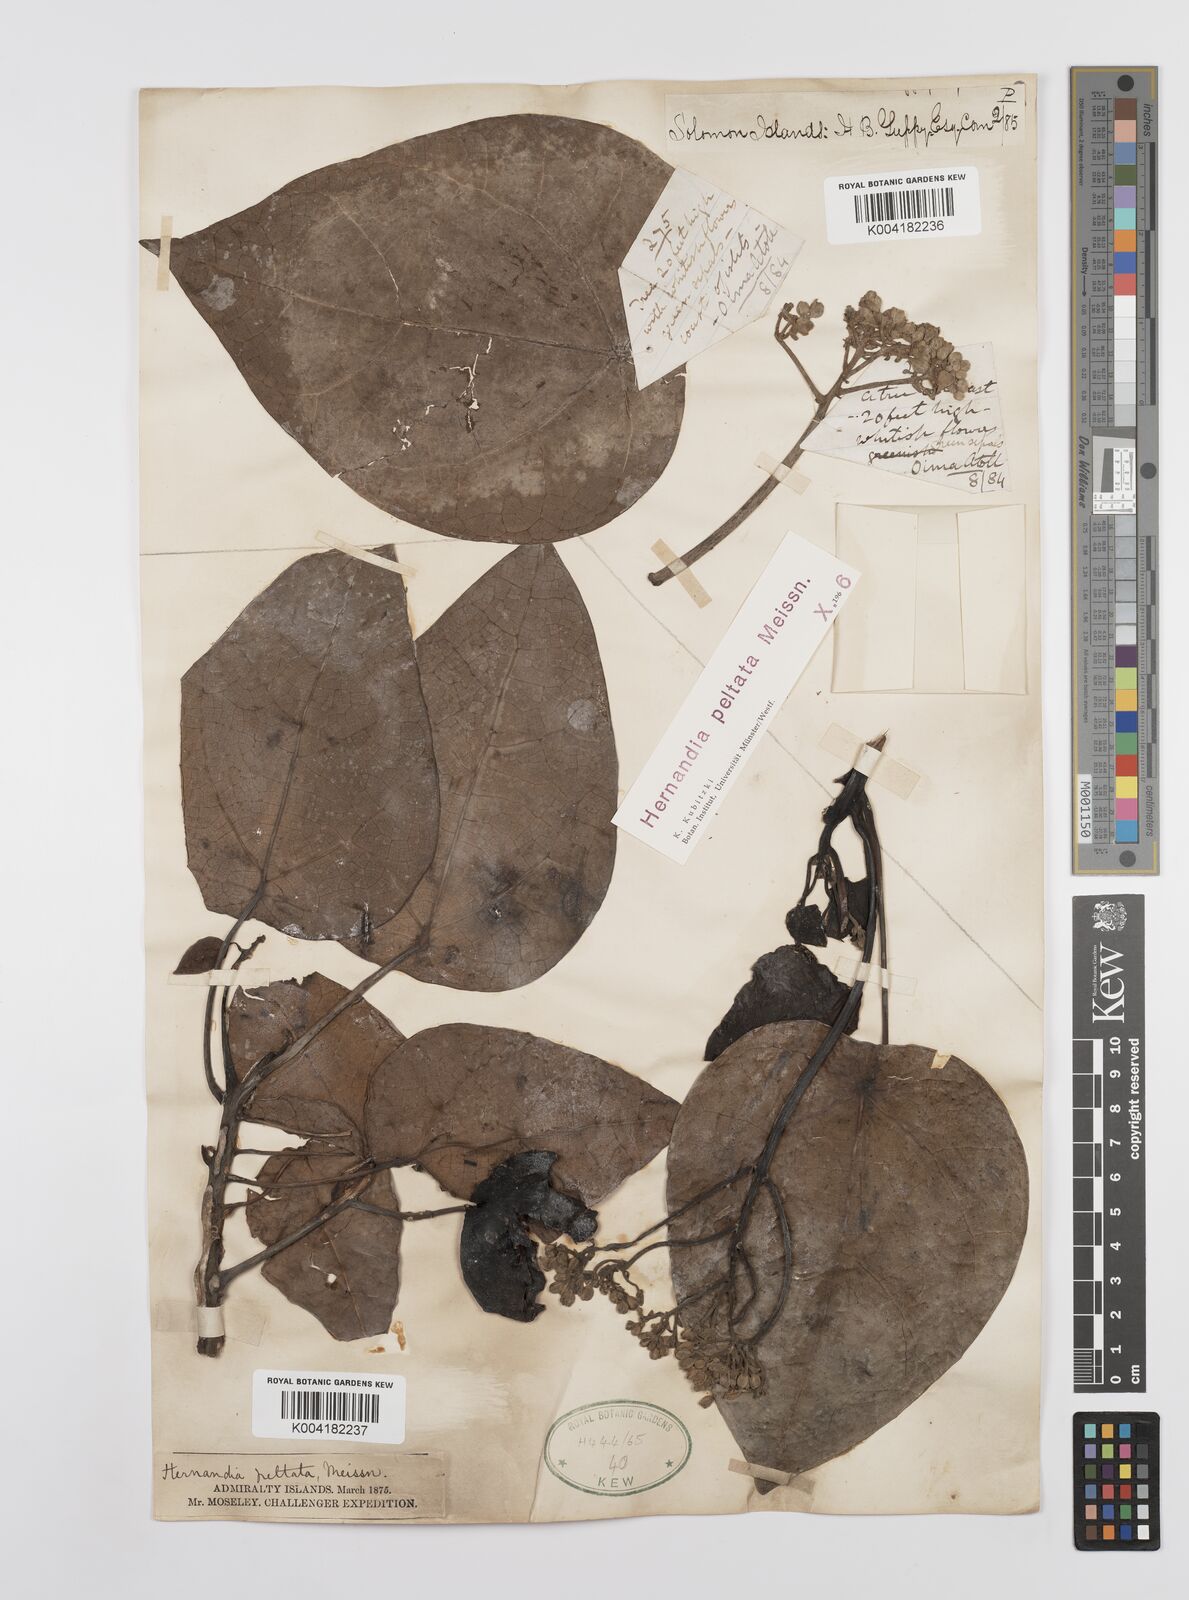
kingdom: Plantae
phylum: Tracheophyta
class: Magnoliopsida
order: Laurales
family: Hernandiaceae
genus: Hernandia
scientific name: Hernandia nymphaeifolia
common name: Sea hearse
